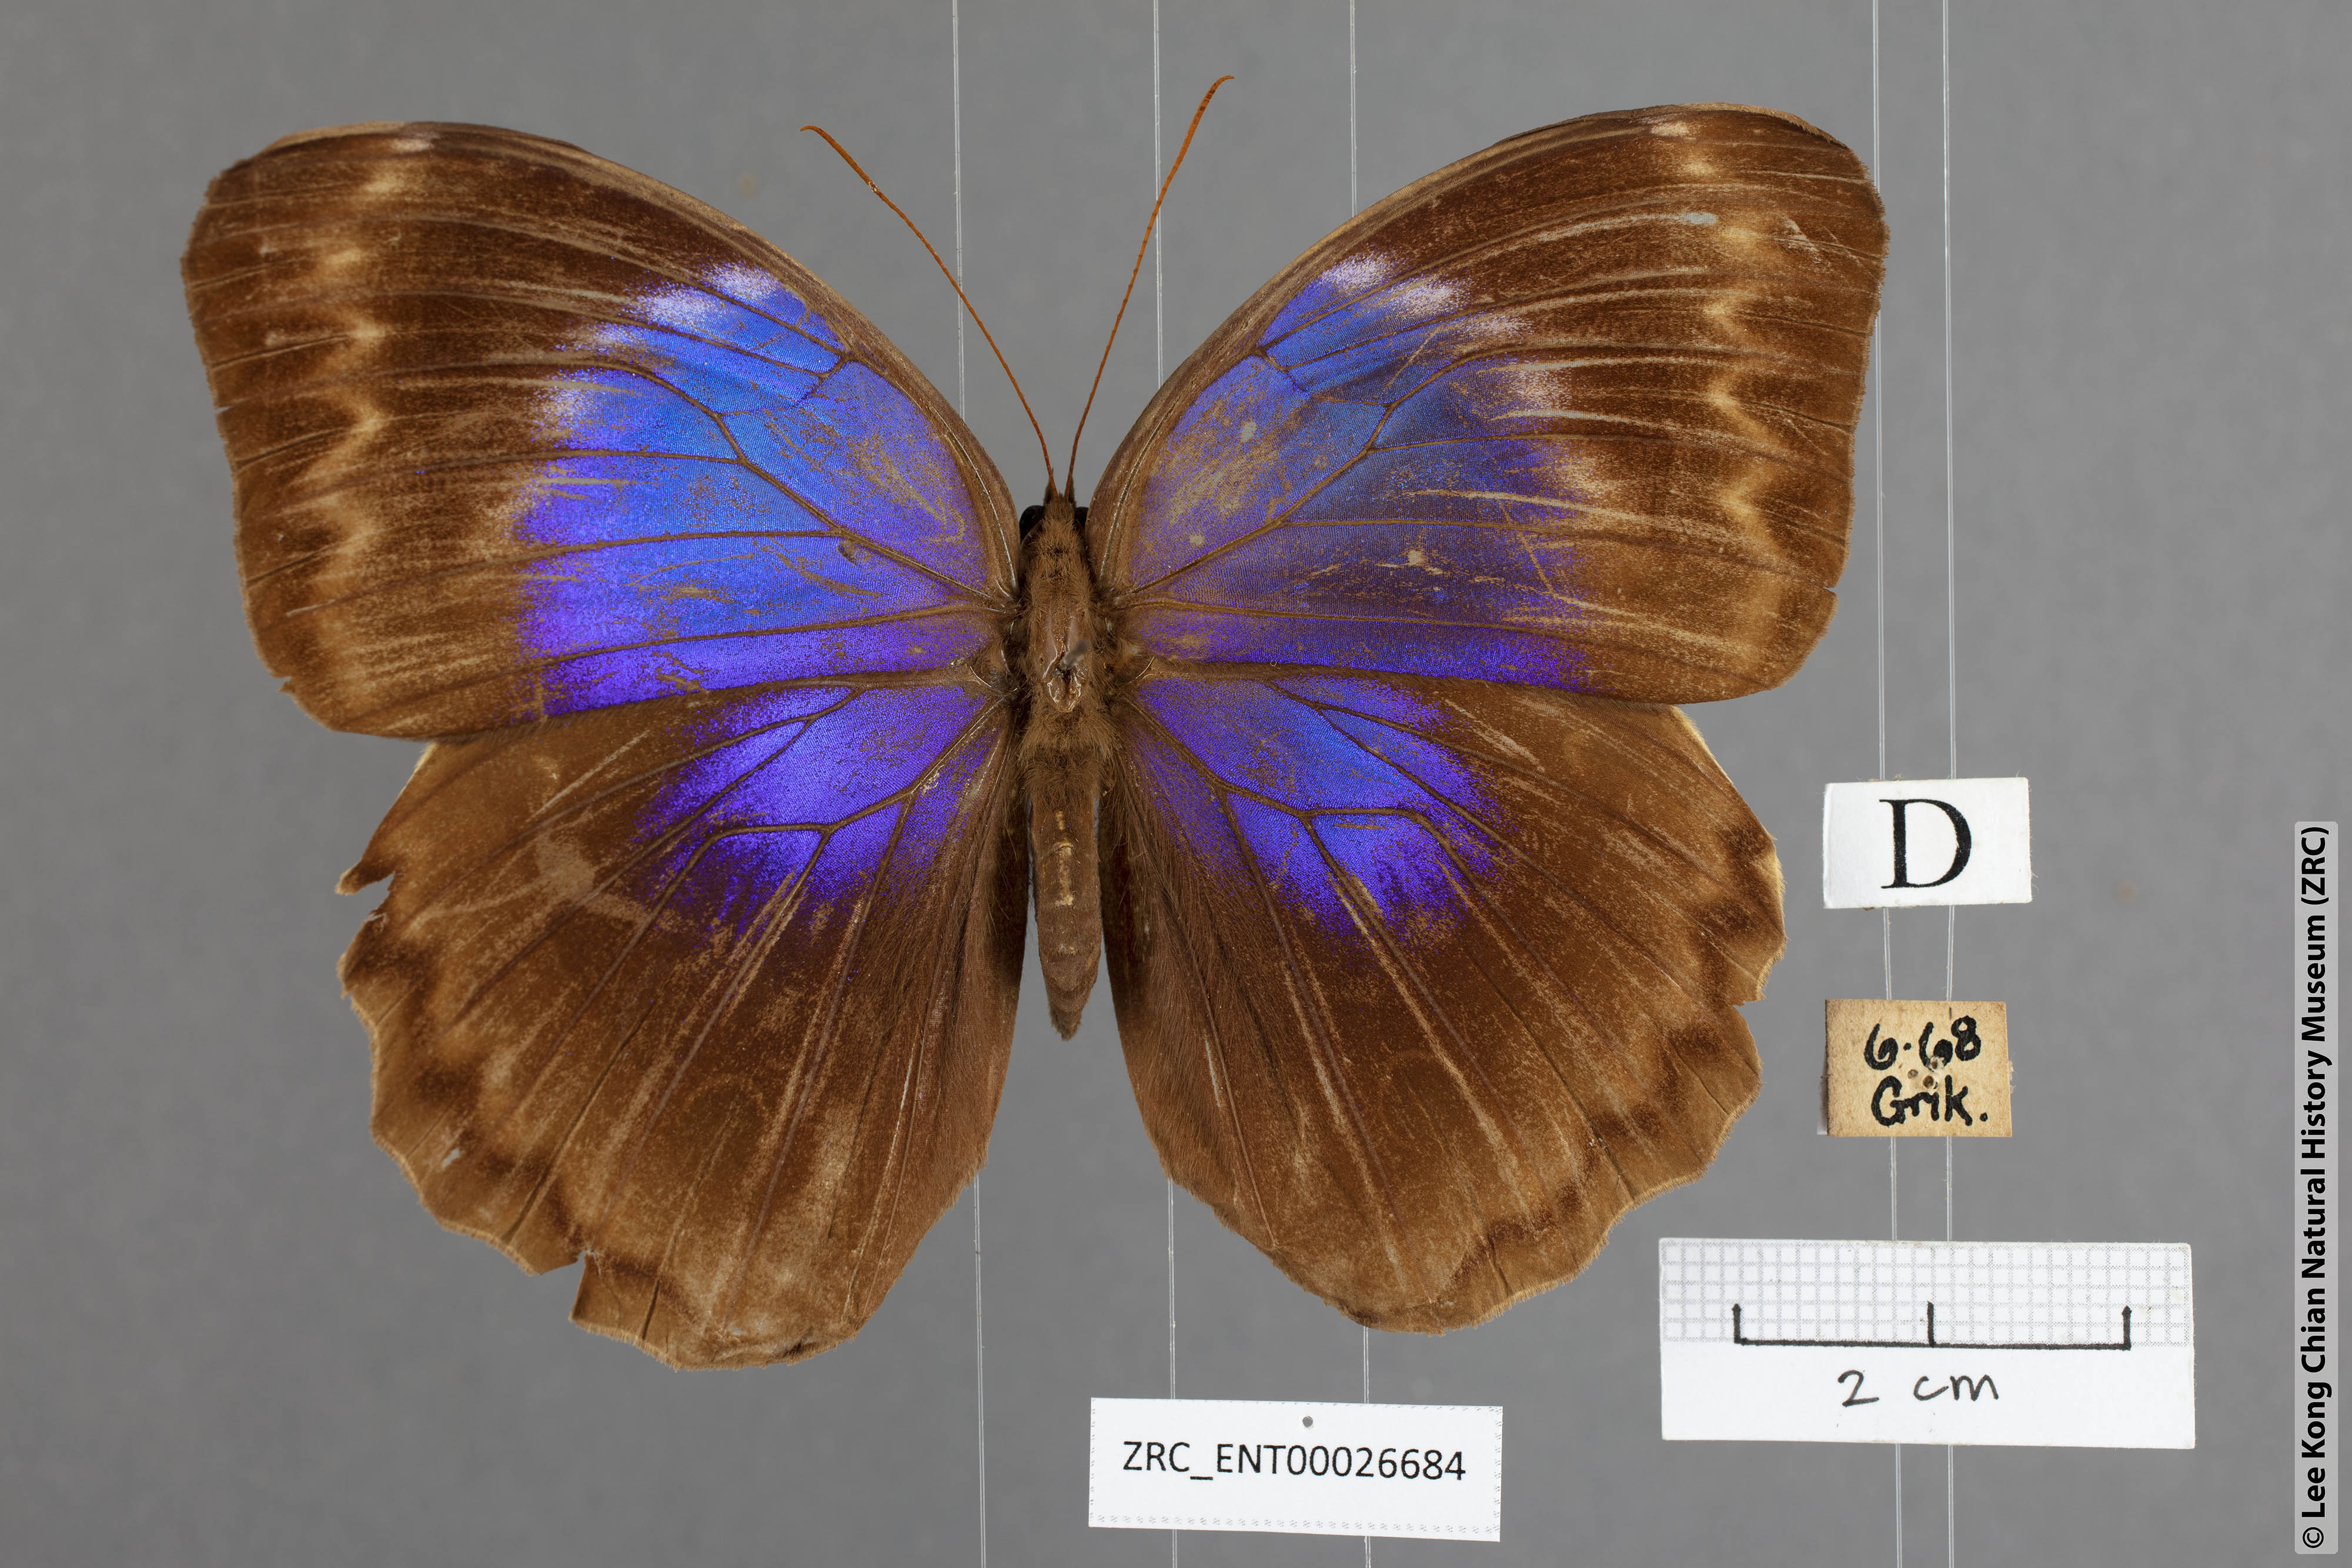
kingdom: Animalia
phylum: Arthropoda
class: Insecta
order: Lepidoptera
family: Nymphalidae
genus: Thaumantis
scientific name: Thaumantis klugius
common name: Dark blue jungle glory
